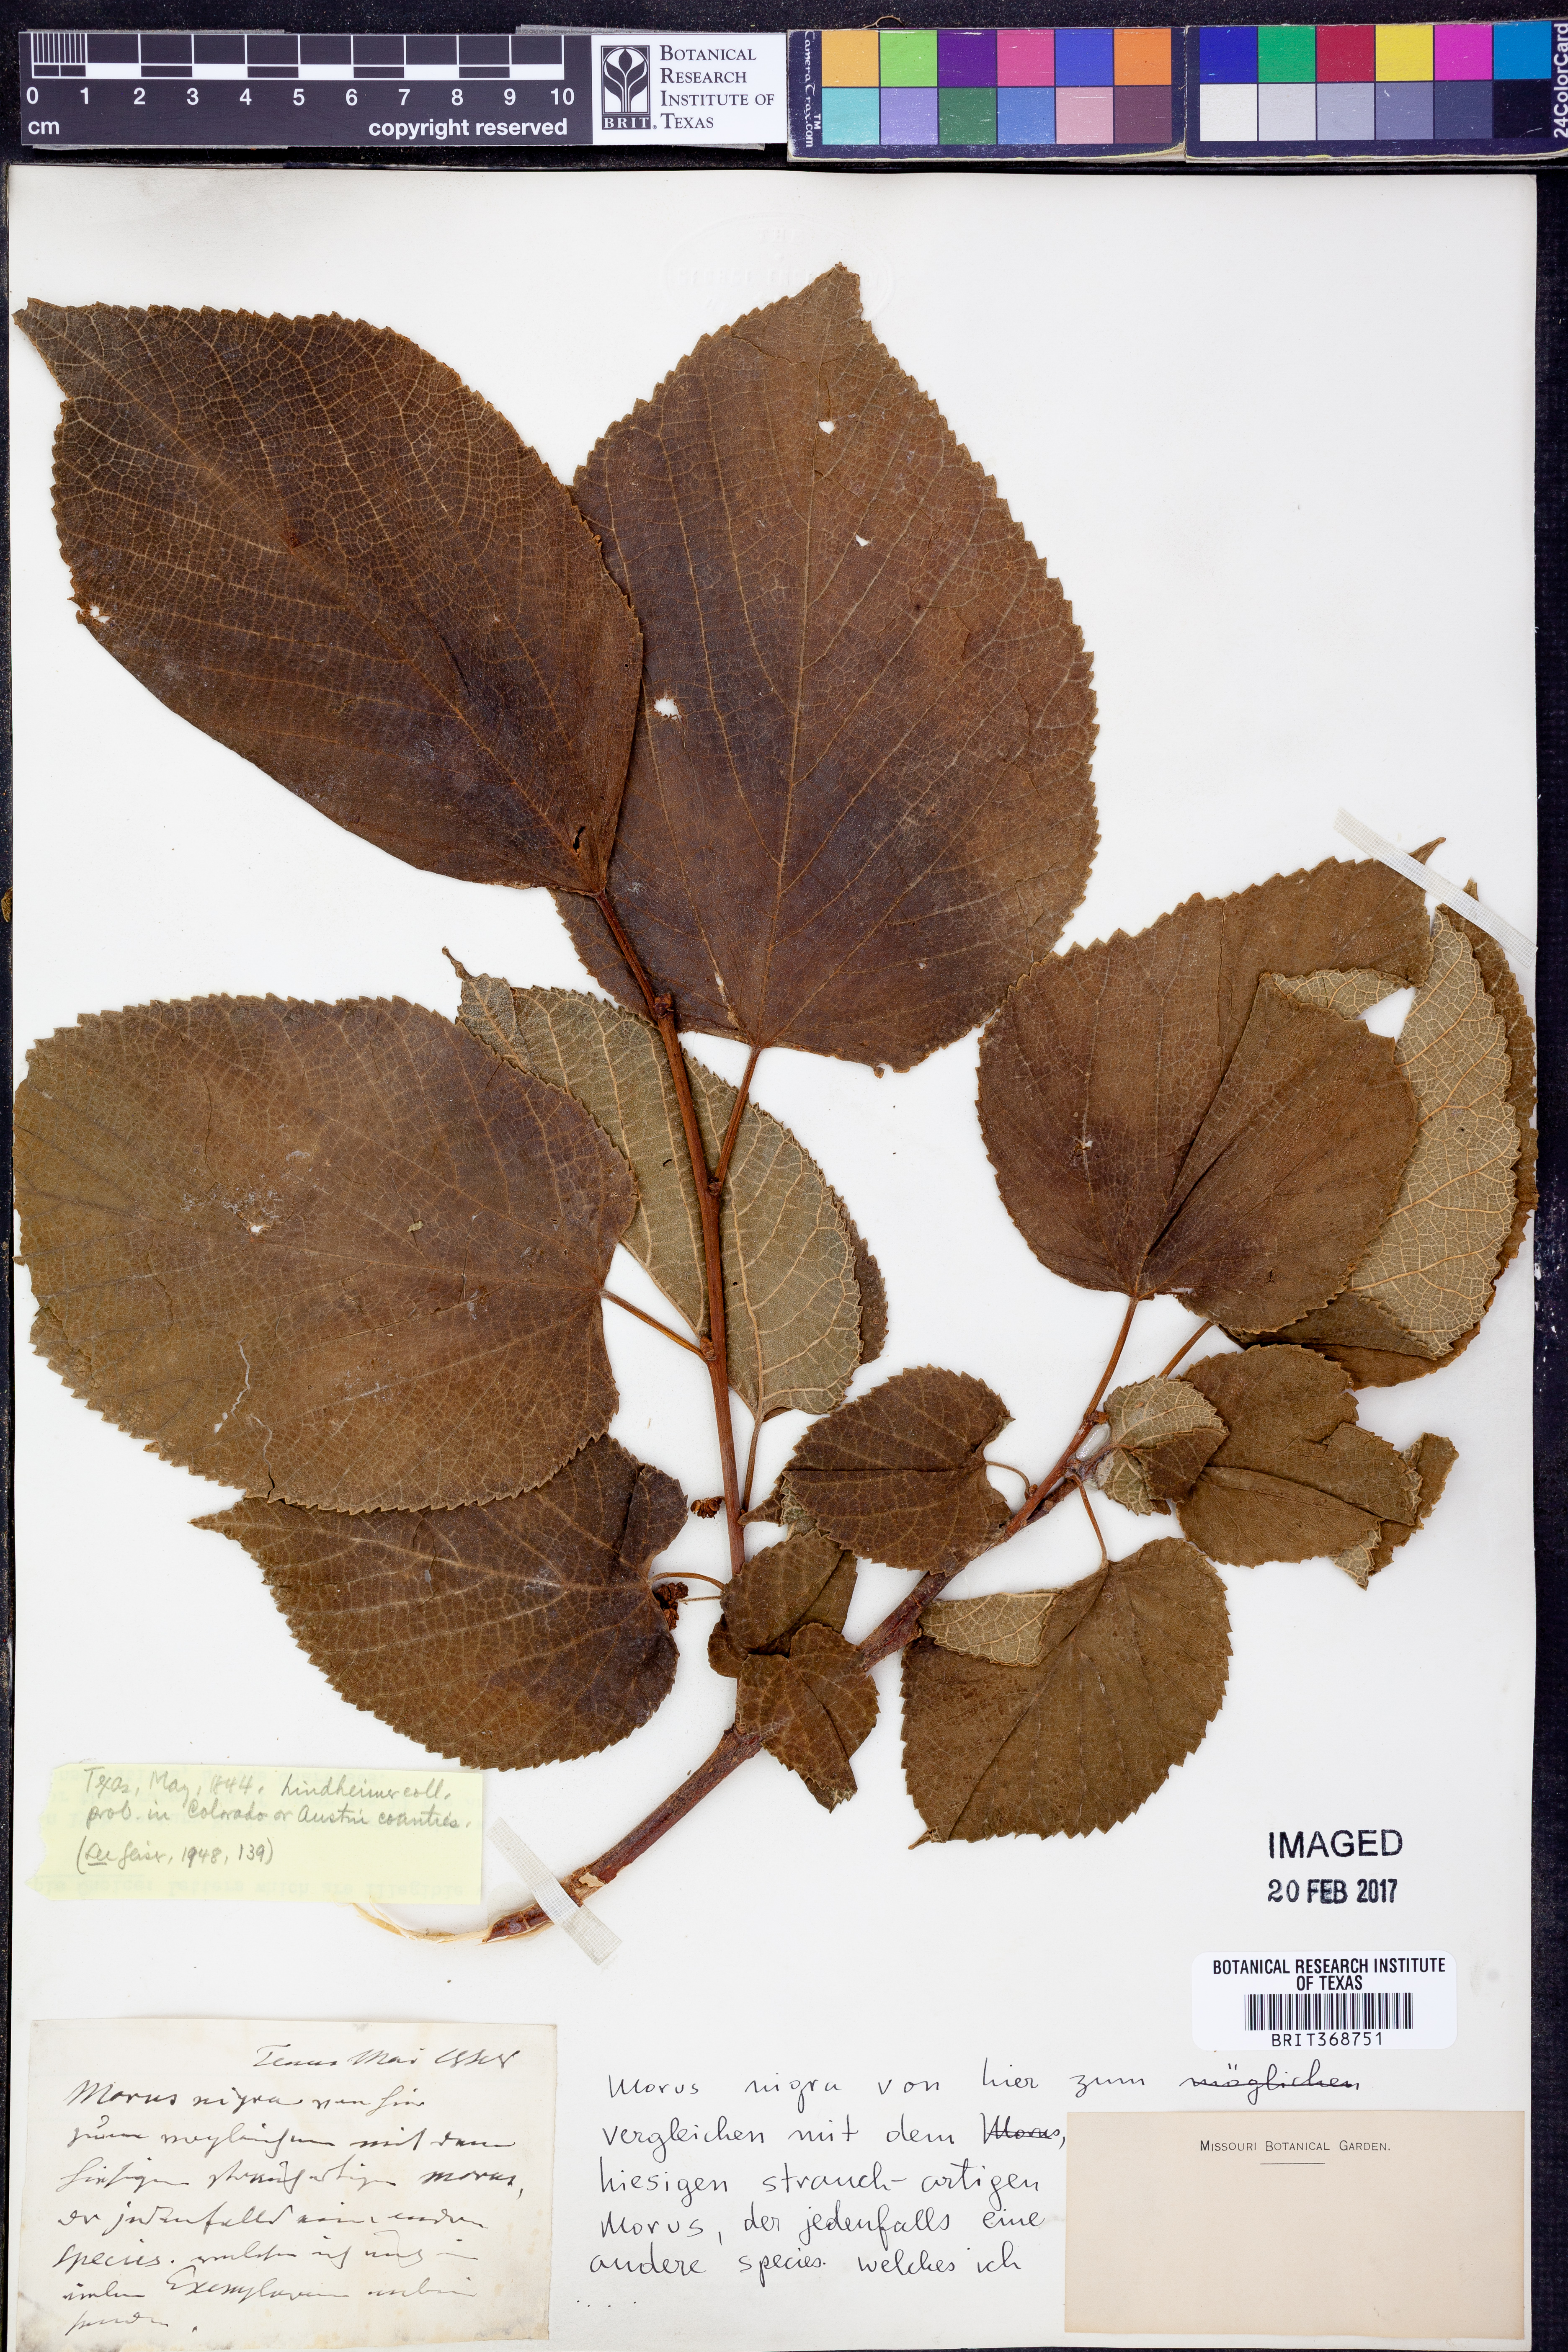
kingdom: Plantae
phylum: Tracheophyta
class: Magnoliopsida
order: Rosales
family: Moraceae
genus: Morus
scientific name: Morus rubra
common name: Red mulberry
